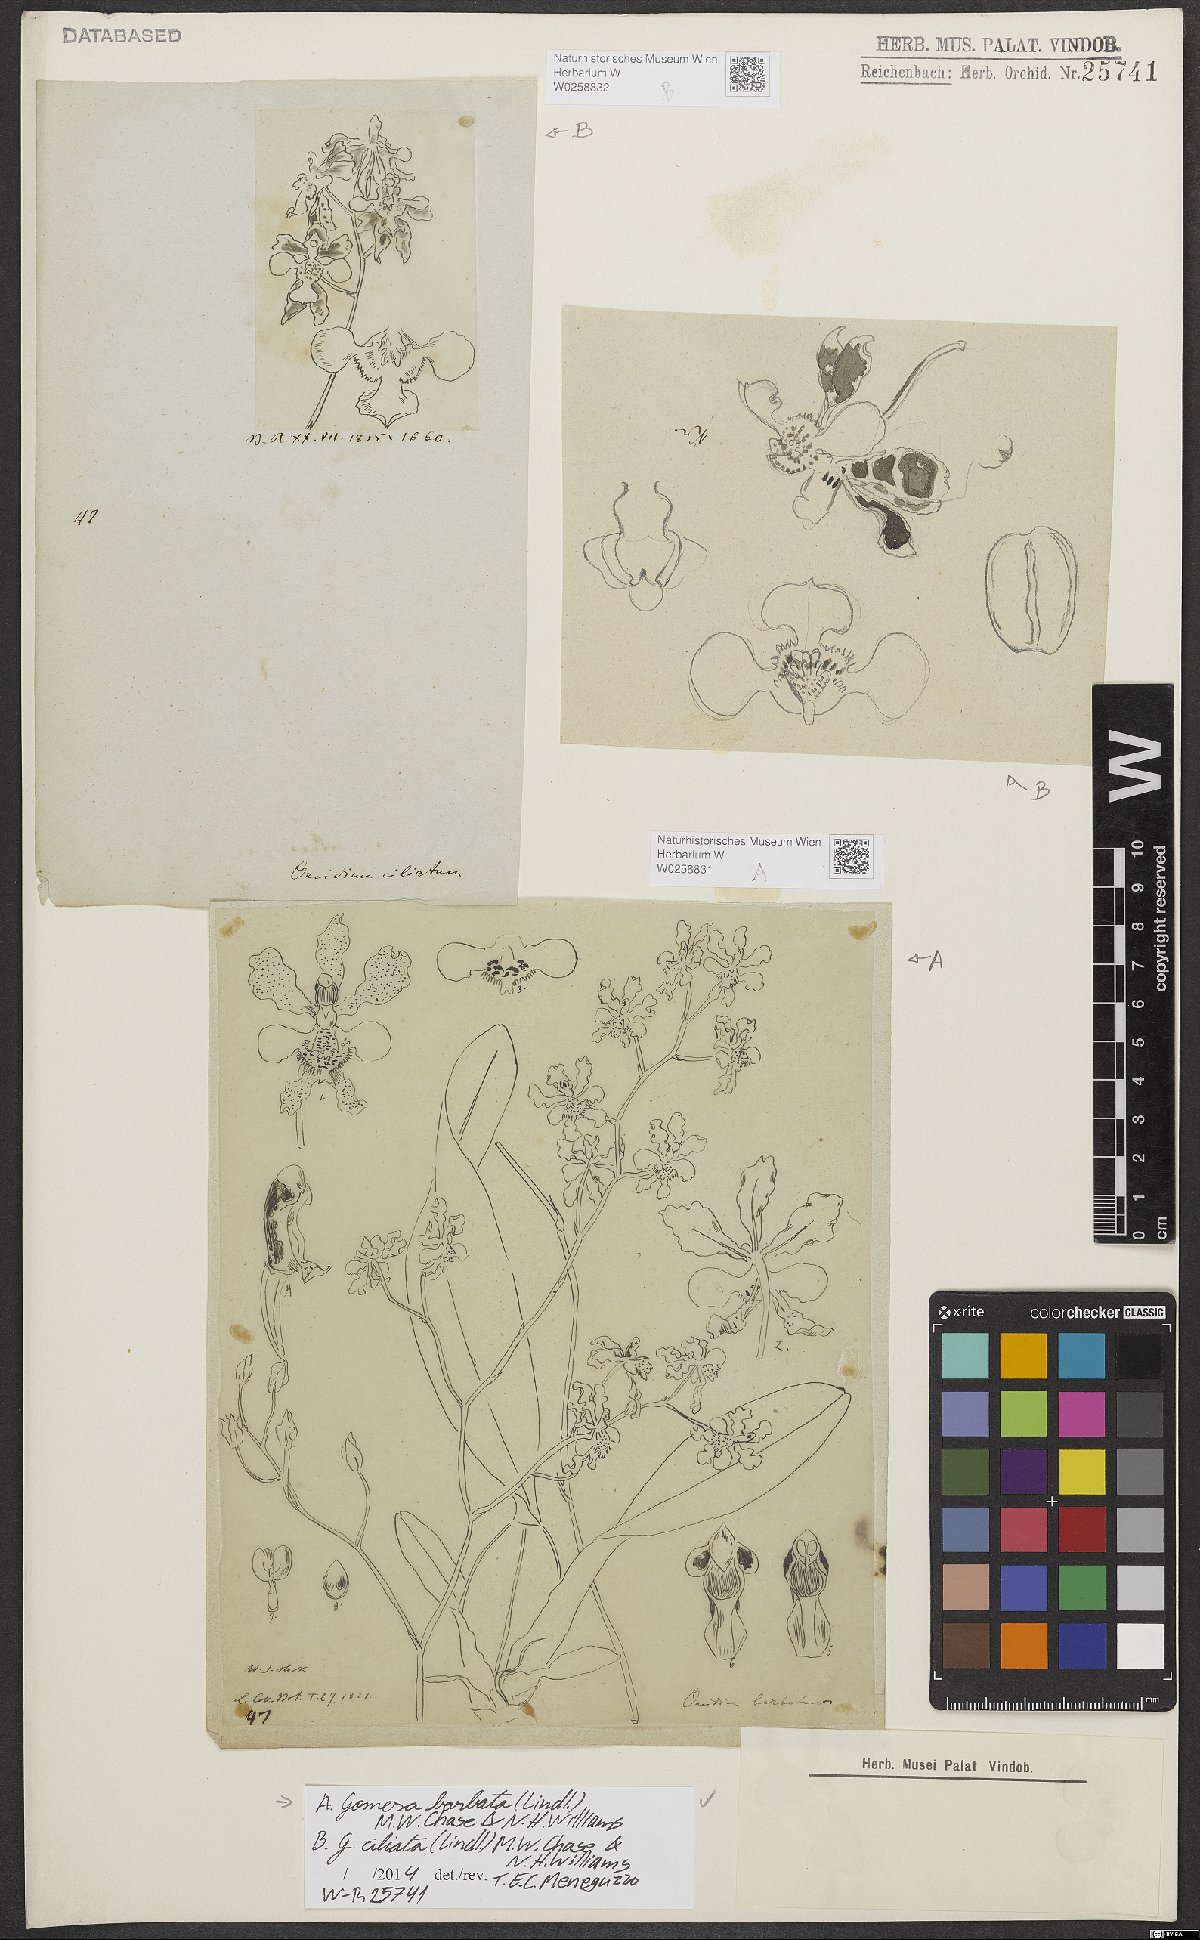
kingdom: Plantae
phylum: Tracheophyta
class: Liliopsida
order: Asparagales
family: Orchidaceae
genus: Gomesa
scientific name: Gomesa barbata
